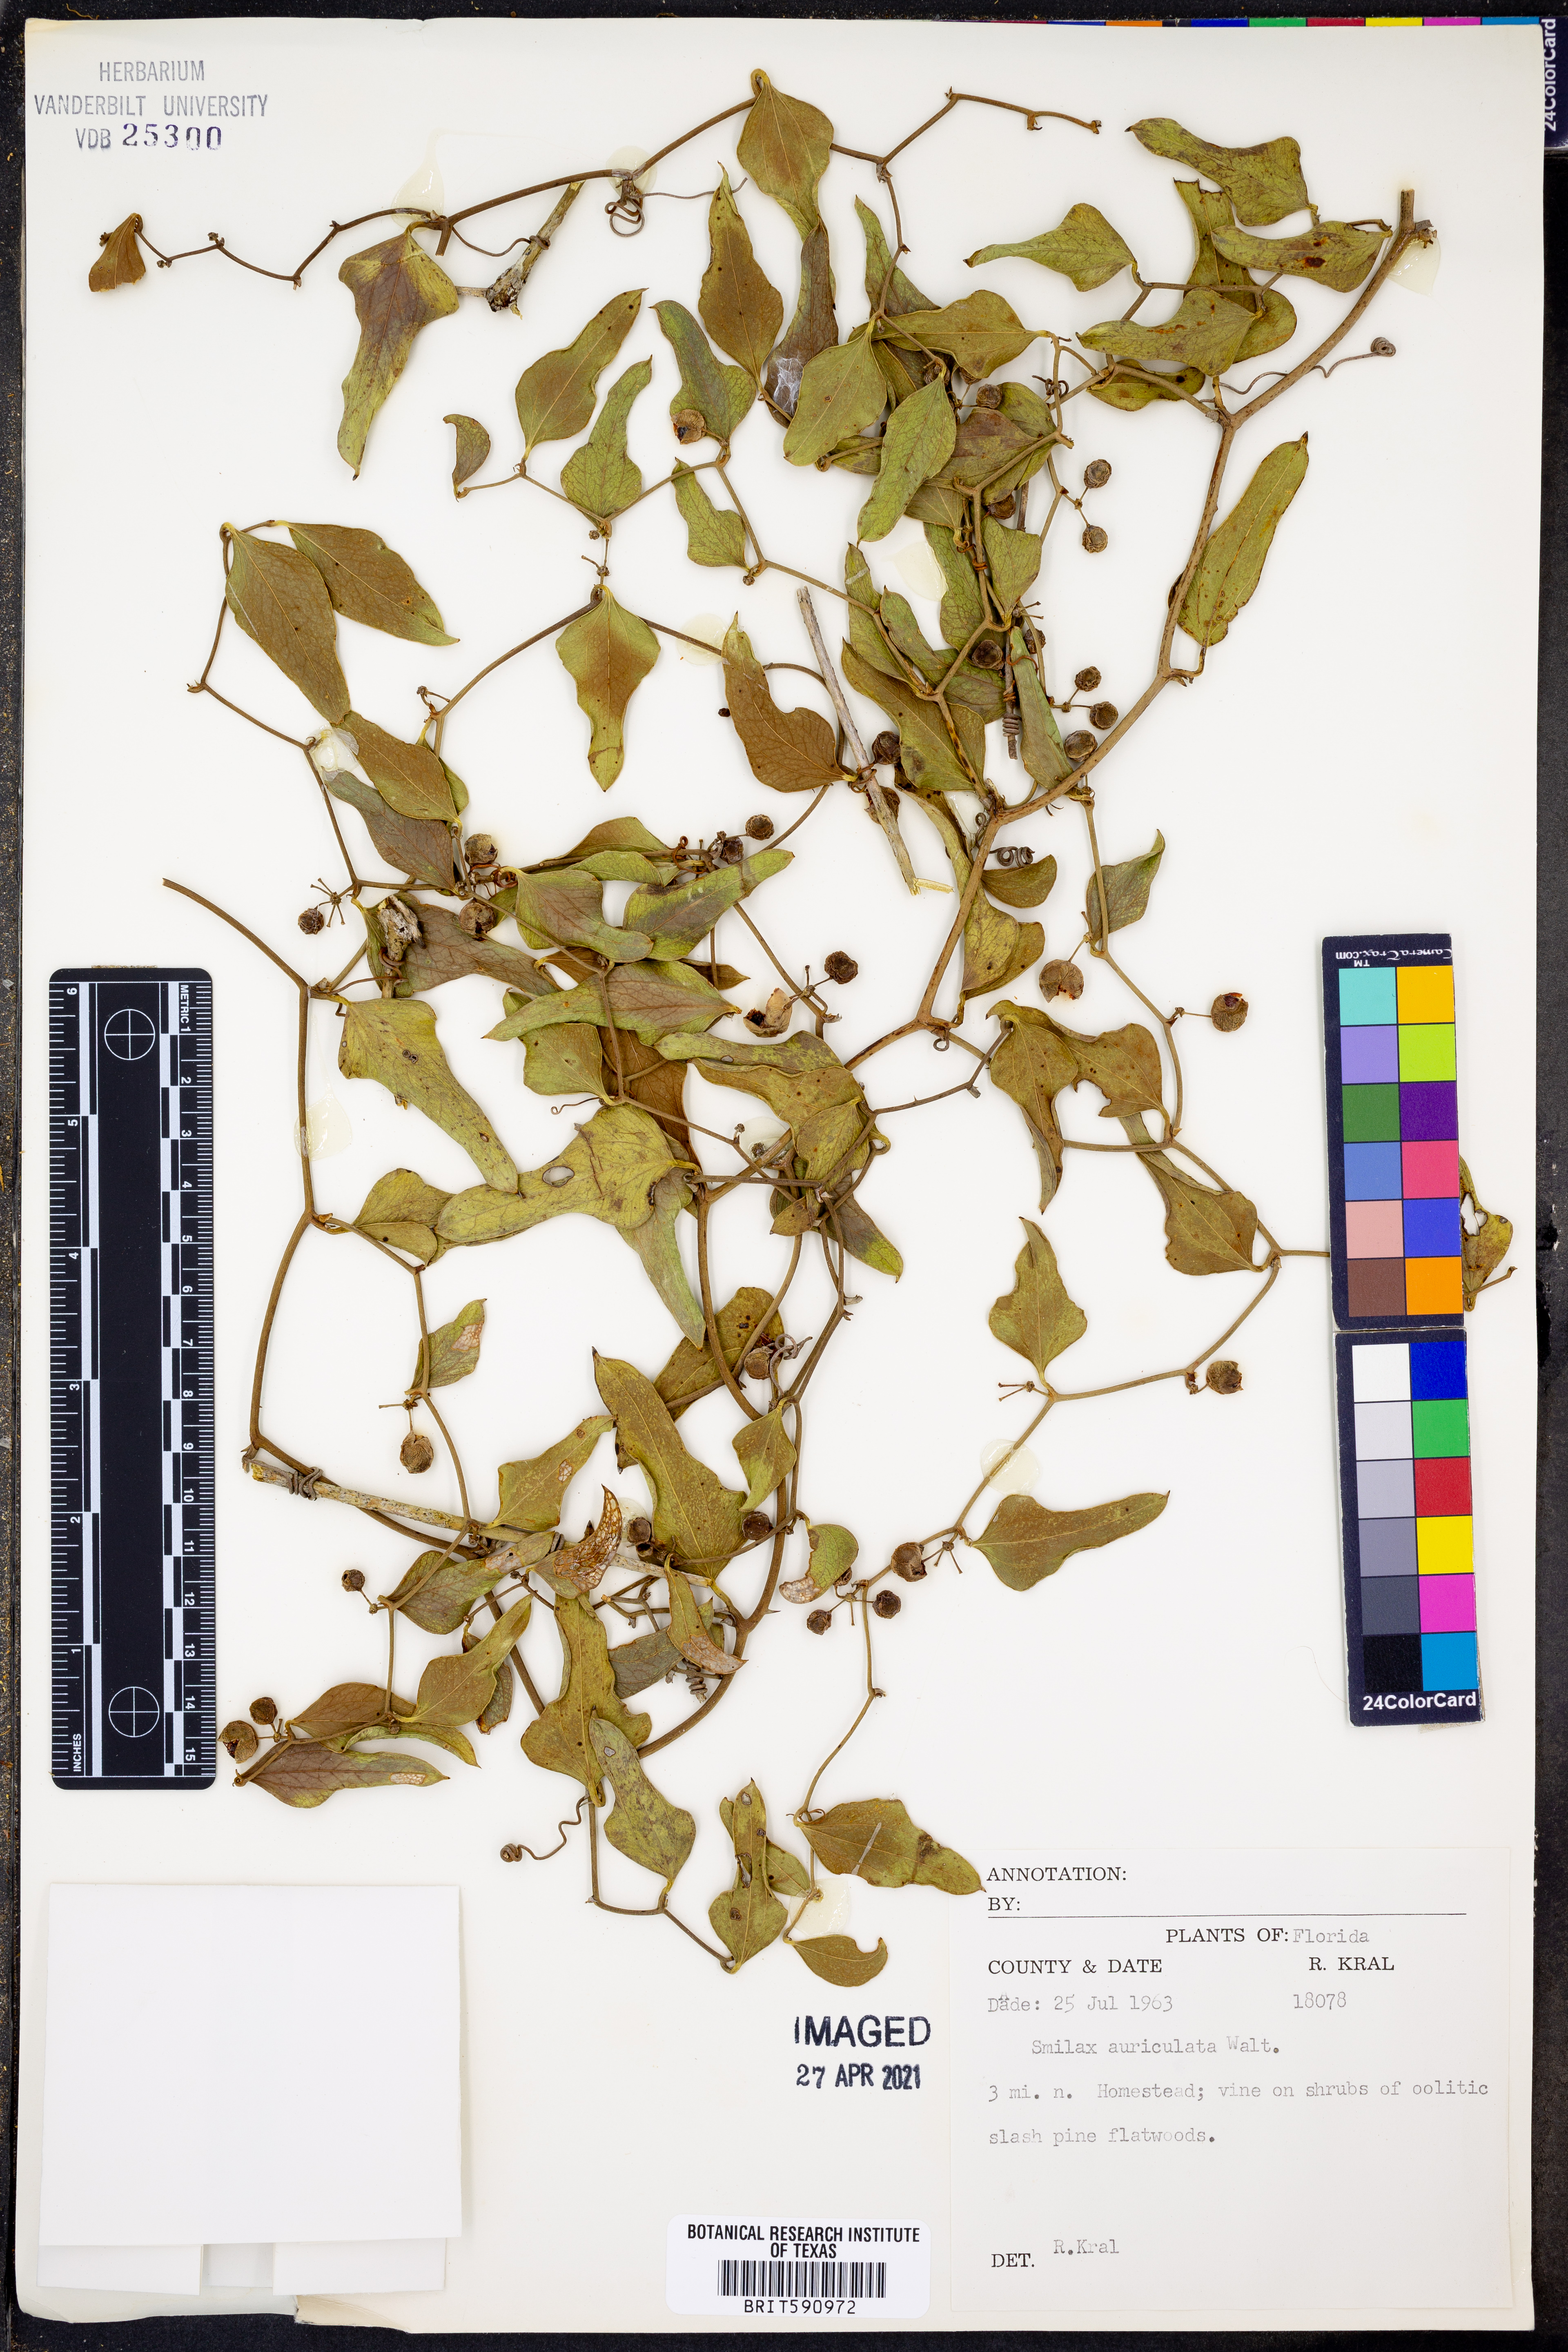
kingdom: Plantae
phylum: Tracheophyta
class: Liliopsida
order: Liliales
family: Smilacaceae
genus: Smilax
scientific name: Smilax auriculata
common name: Wild bamboo
